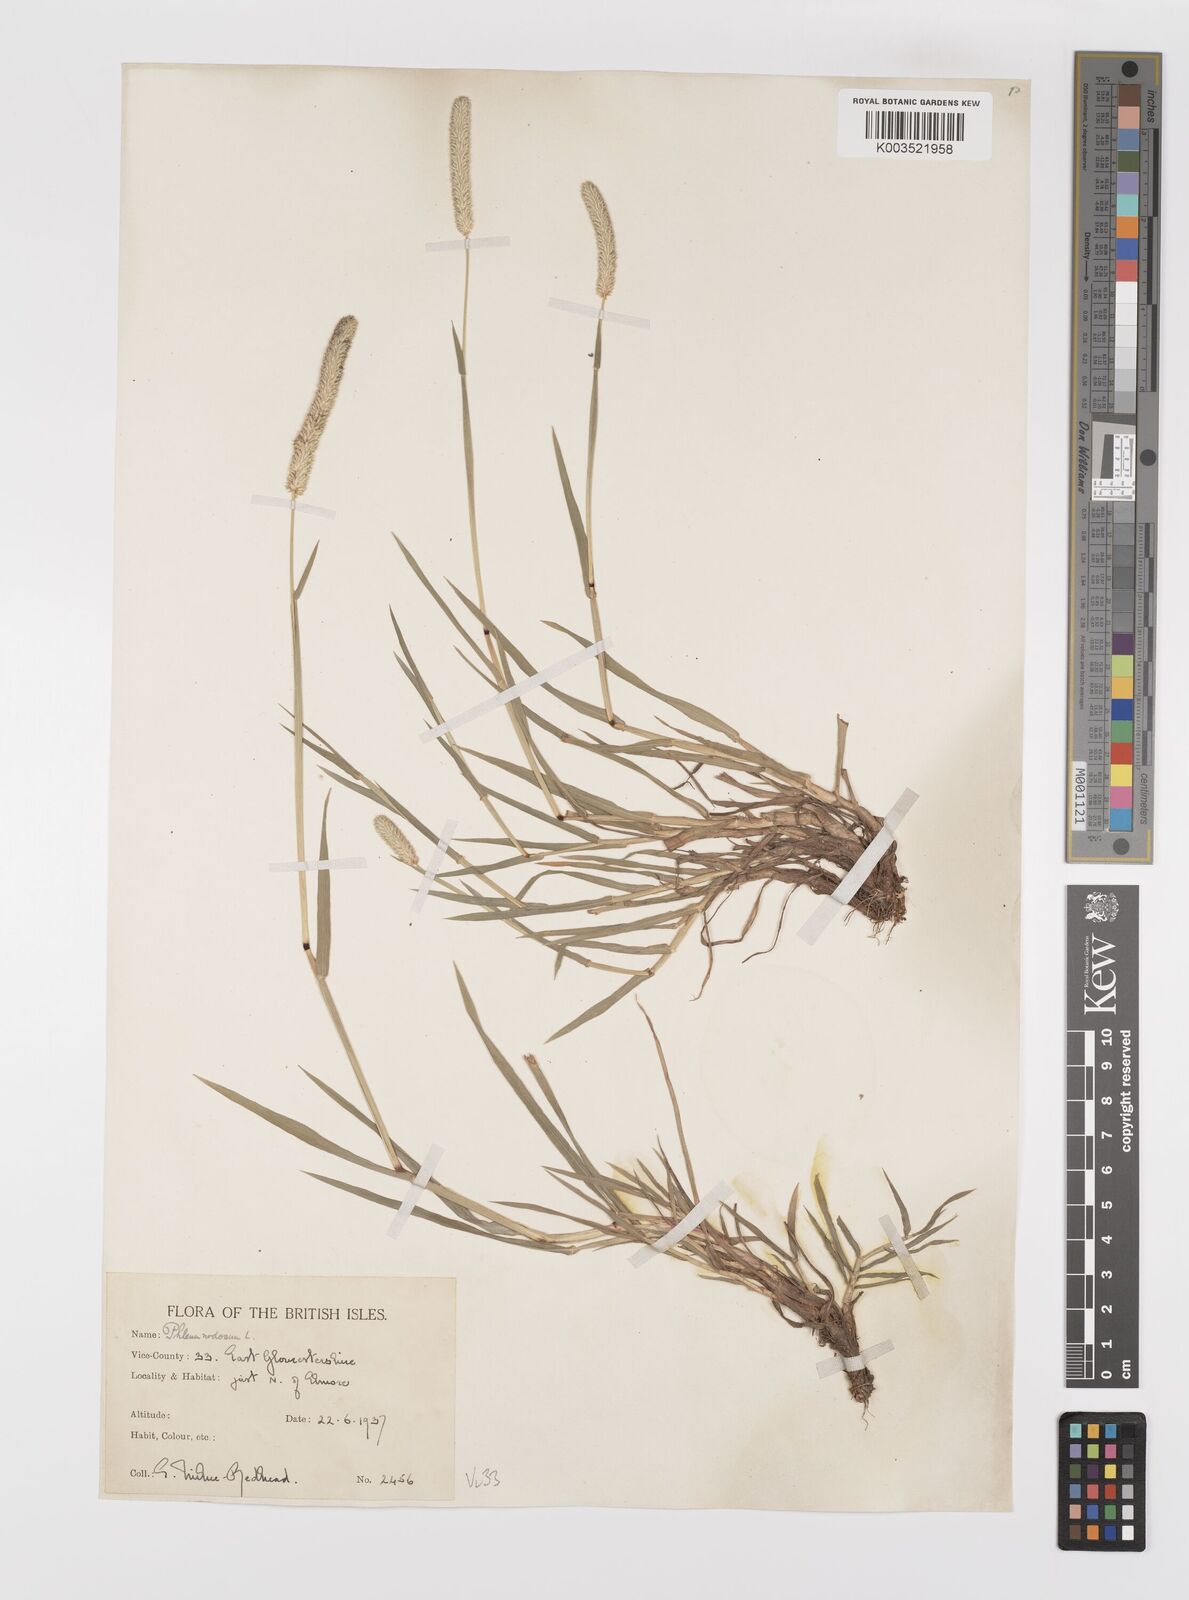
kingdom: Plantae
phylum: Tracheophyta
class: Liliopsida
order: Poales
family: Poaceae
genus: Phleum
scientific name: Phleum bertolonii
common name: Smaller cat's-tail
